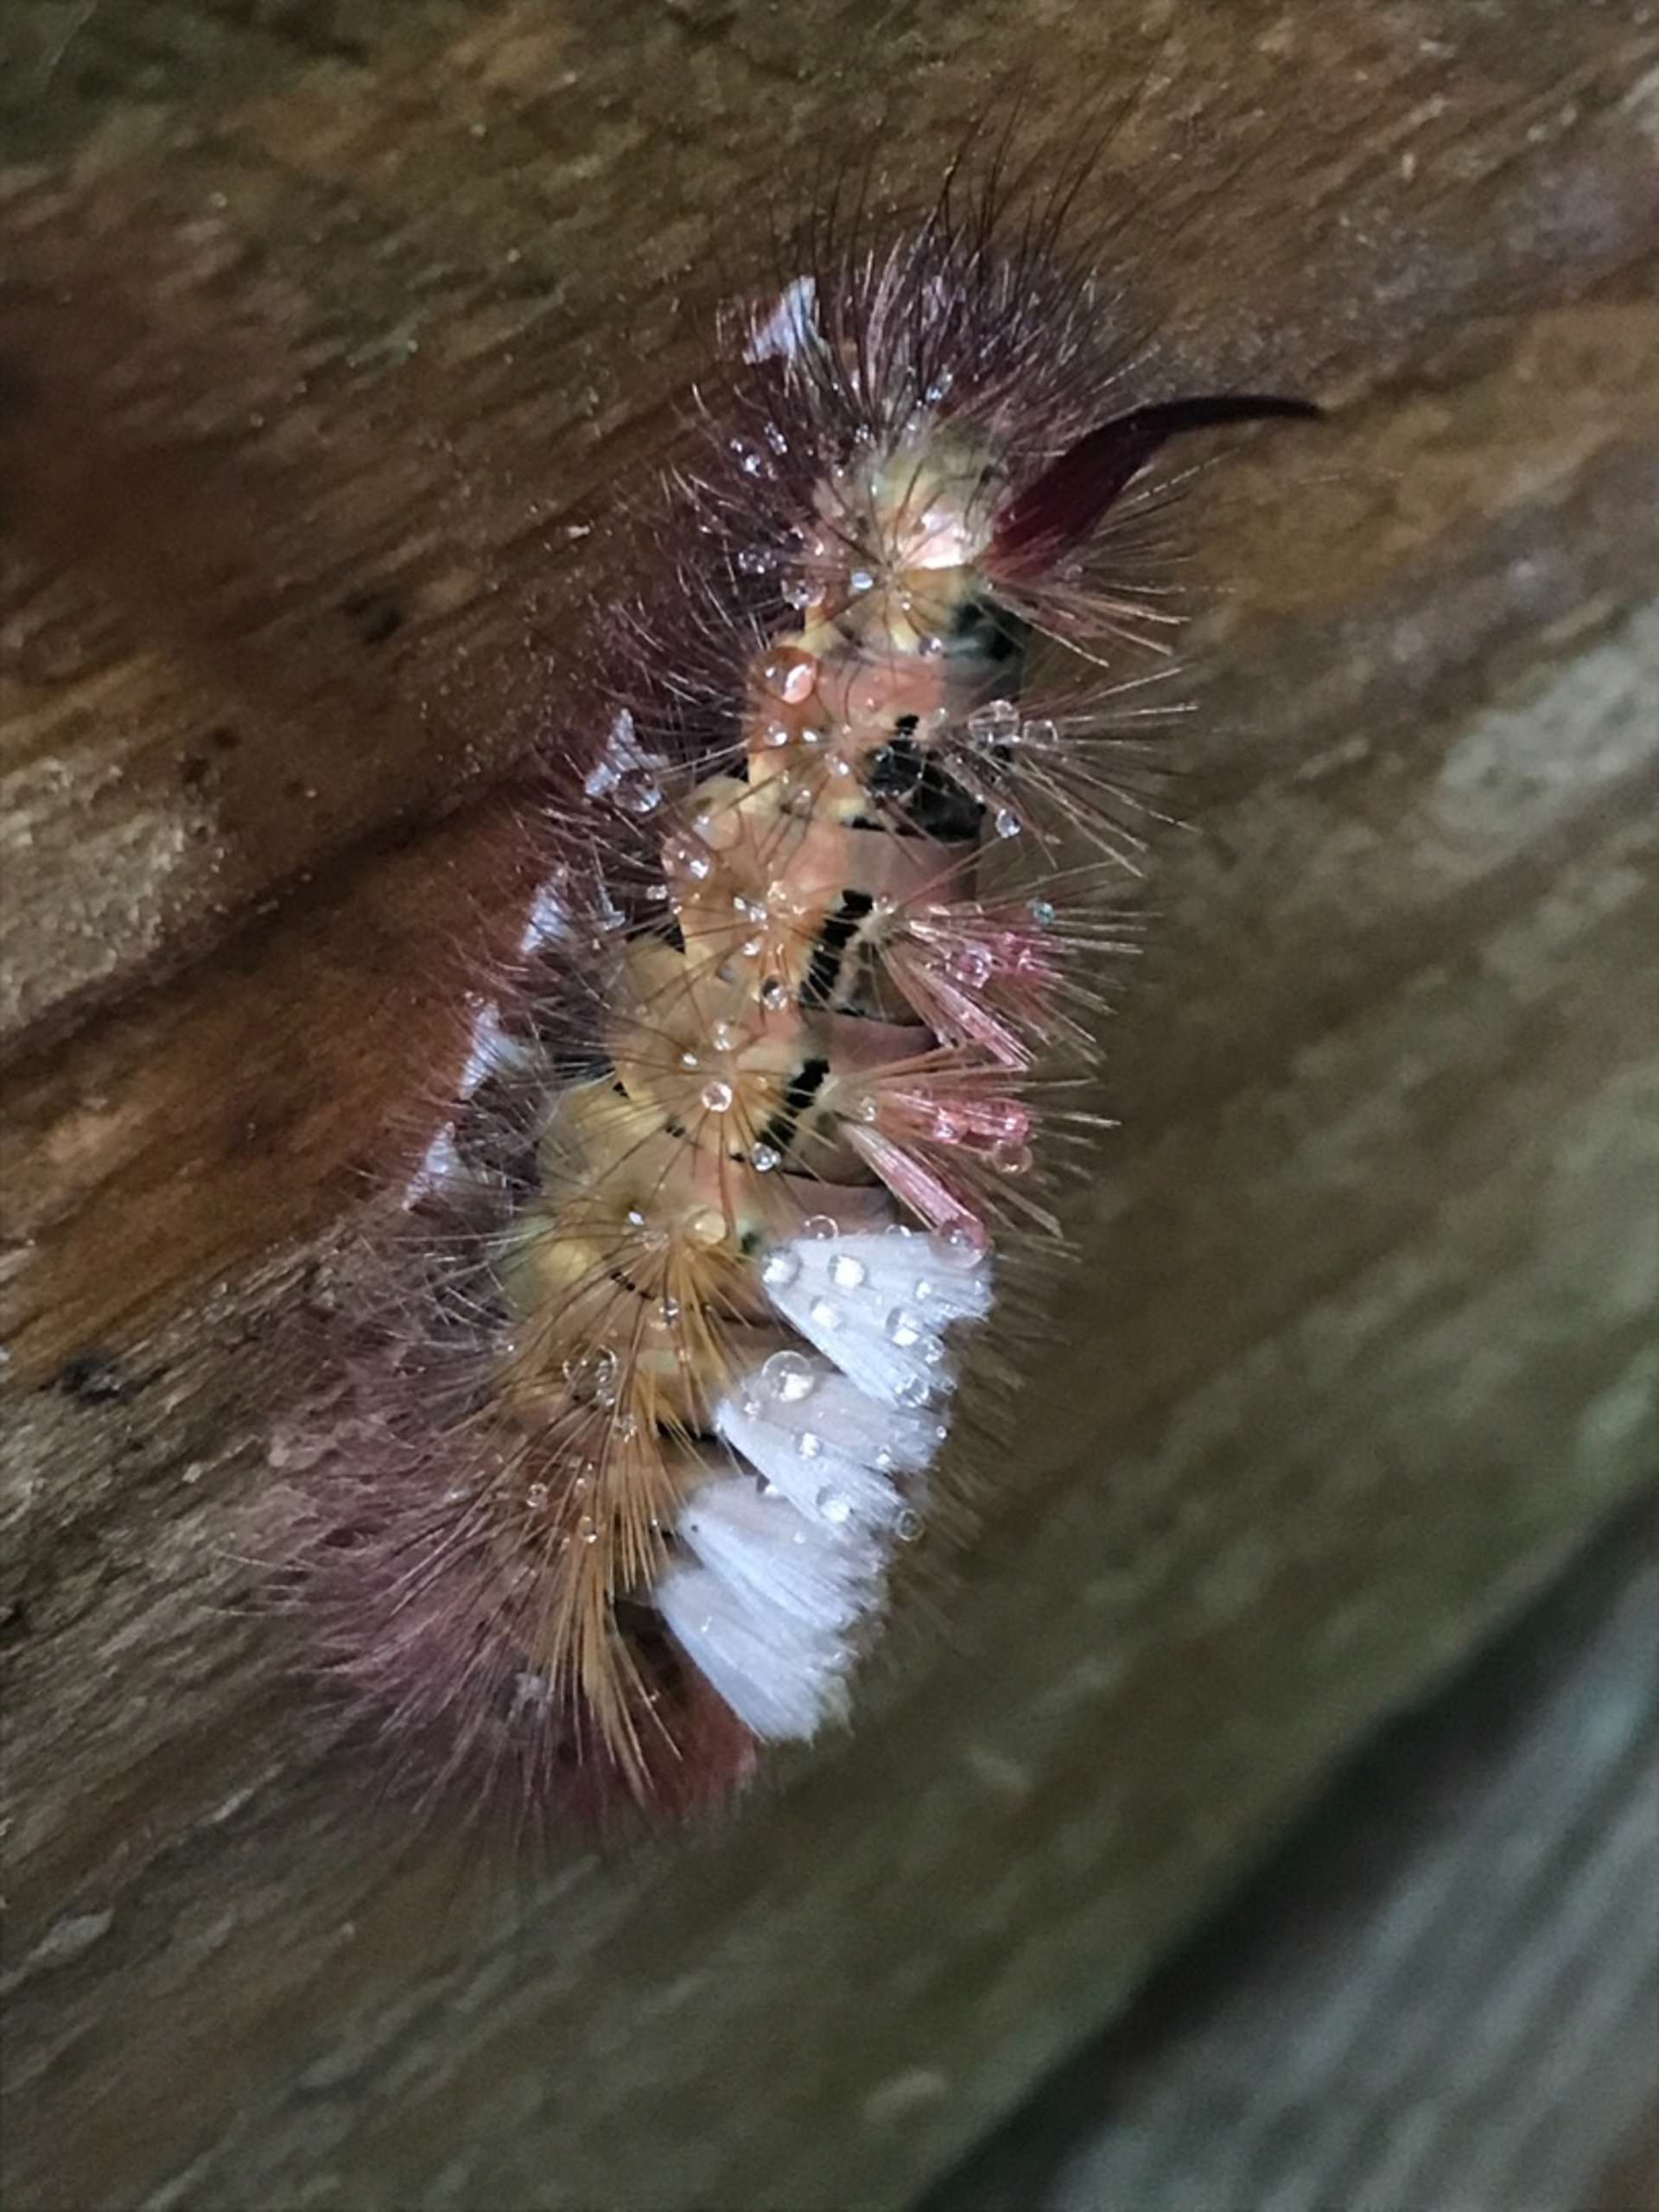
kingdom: Animalia
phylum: Arthropoda
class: Insecta
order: Lepidoptera
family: Erebidae
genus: Calliteara
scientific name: Calliteara pudibunda
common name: Bøgenonne
